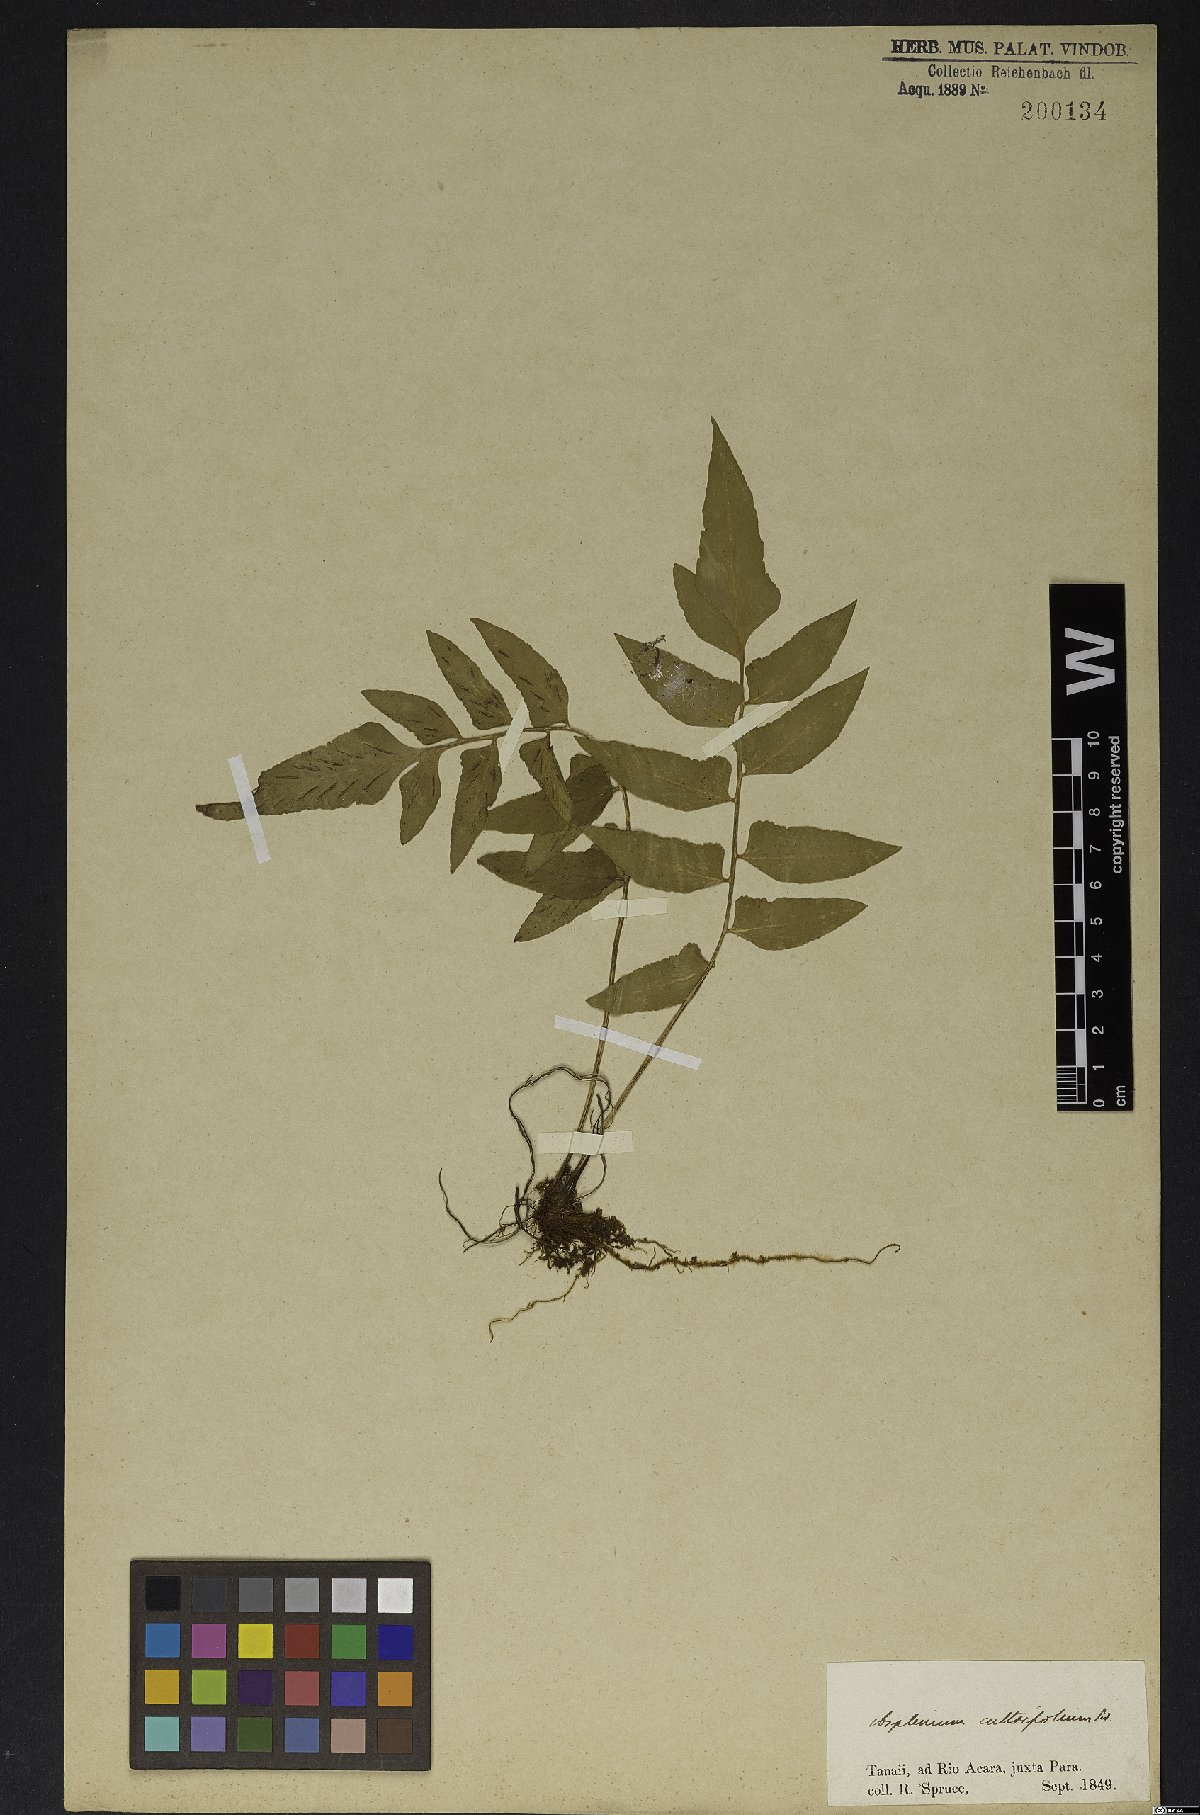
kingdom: Plantae
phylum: Tracheophyta
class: Polypodiopsida
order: Polypodiales
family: Aspleniaceae
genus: Asplenium
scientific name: Asplenium auriculatum
